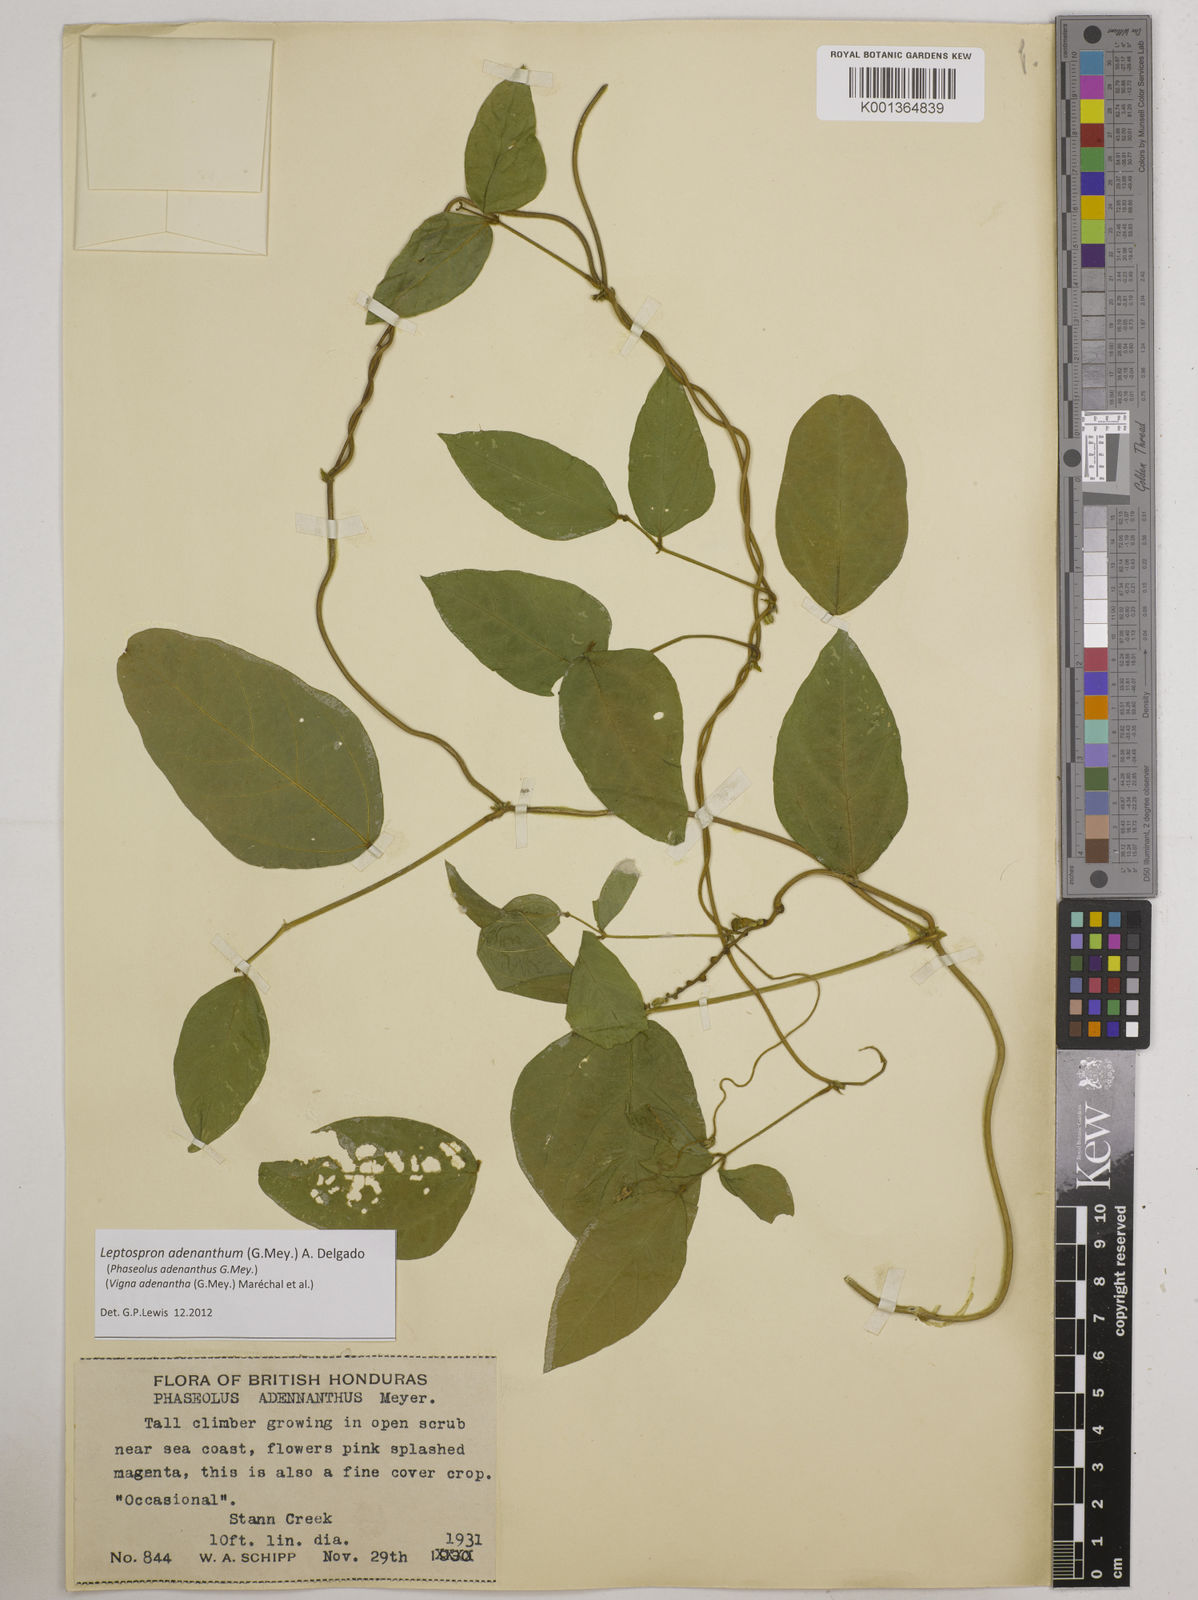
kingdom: Plantae
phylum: Tracheophyta
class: Magnoliopsida
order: Fabales
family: Fabaceae
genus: Leptospron
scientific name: Leptospron adenanthum
